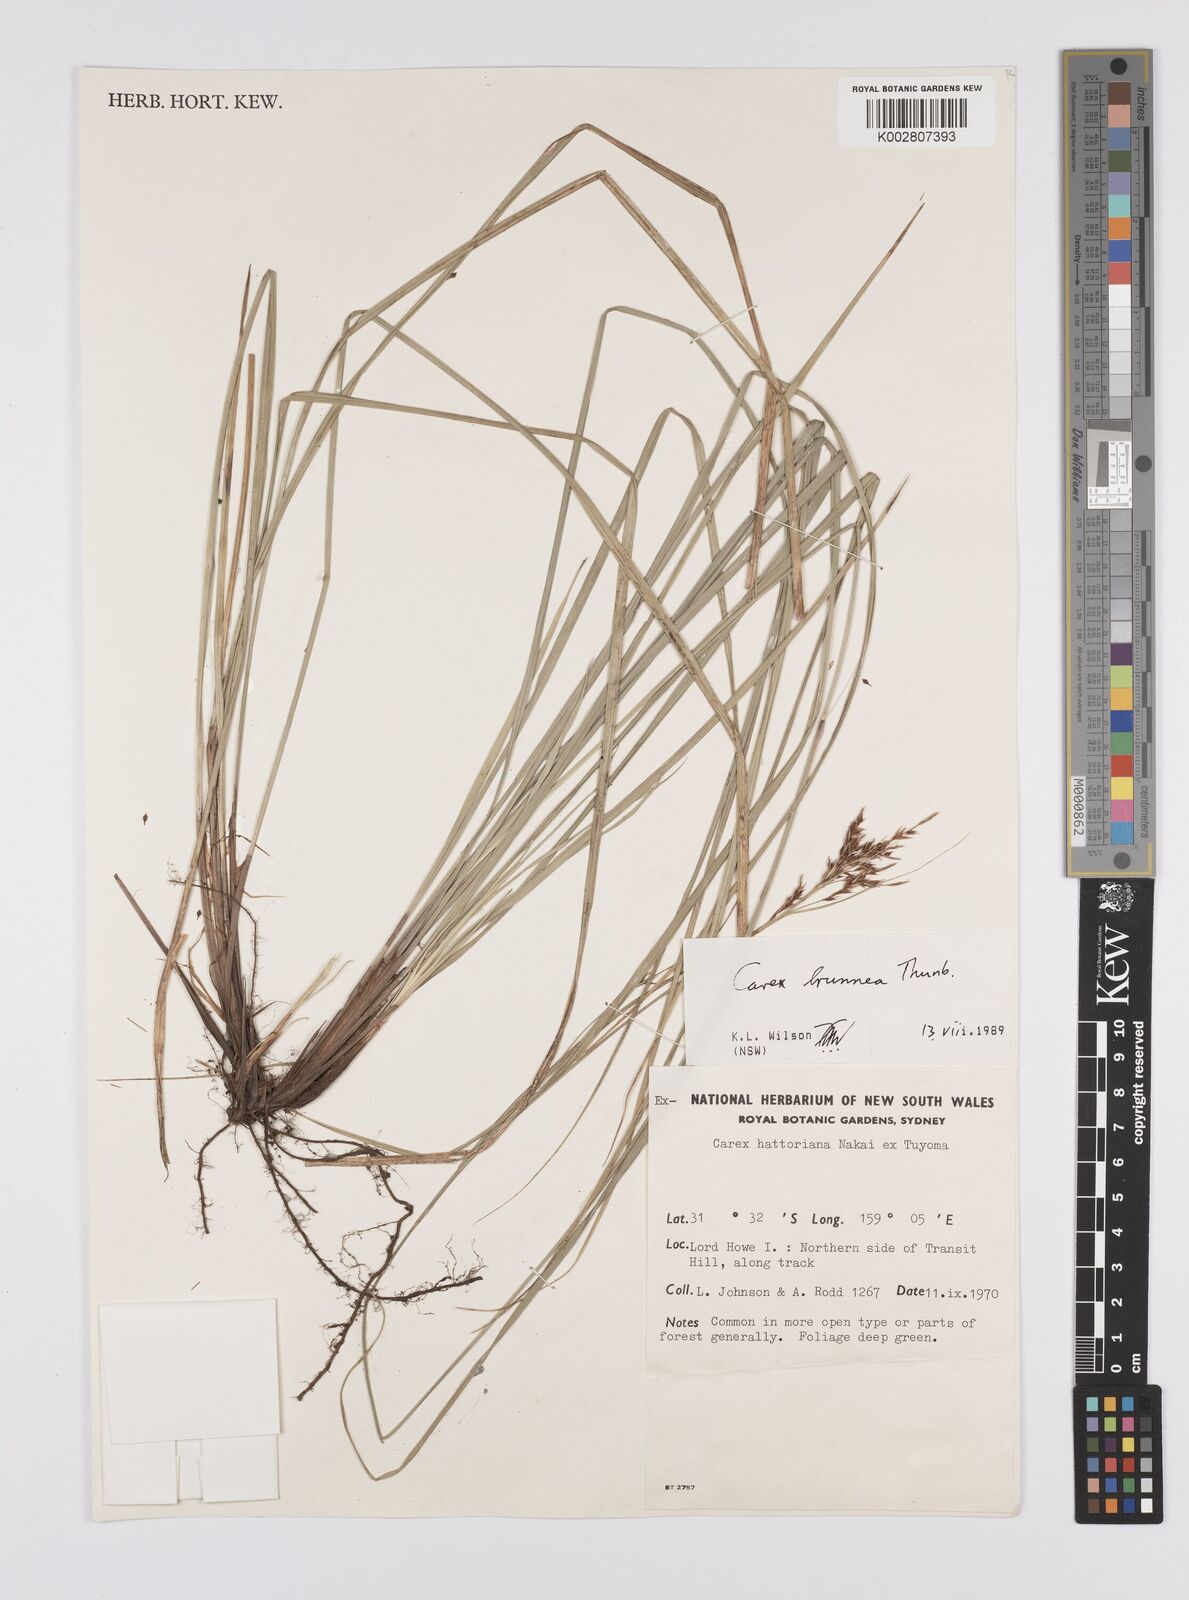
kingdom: Plantae
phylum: Tracheophyta
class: Liliopsida
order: Poales
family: Cyperaceae
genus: Carex
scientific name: Carex hattoriana
